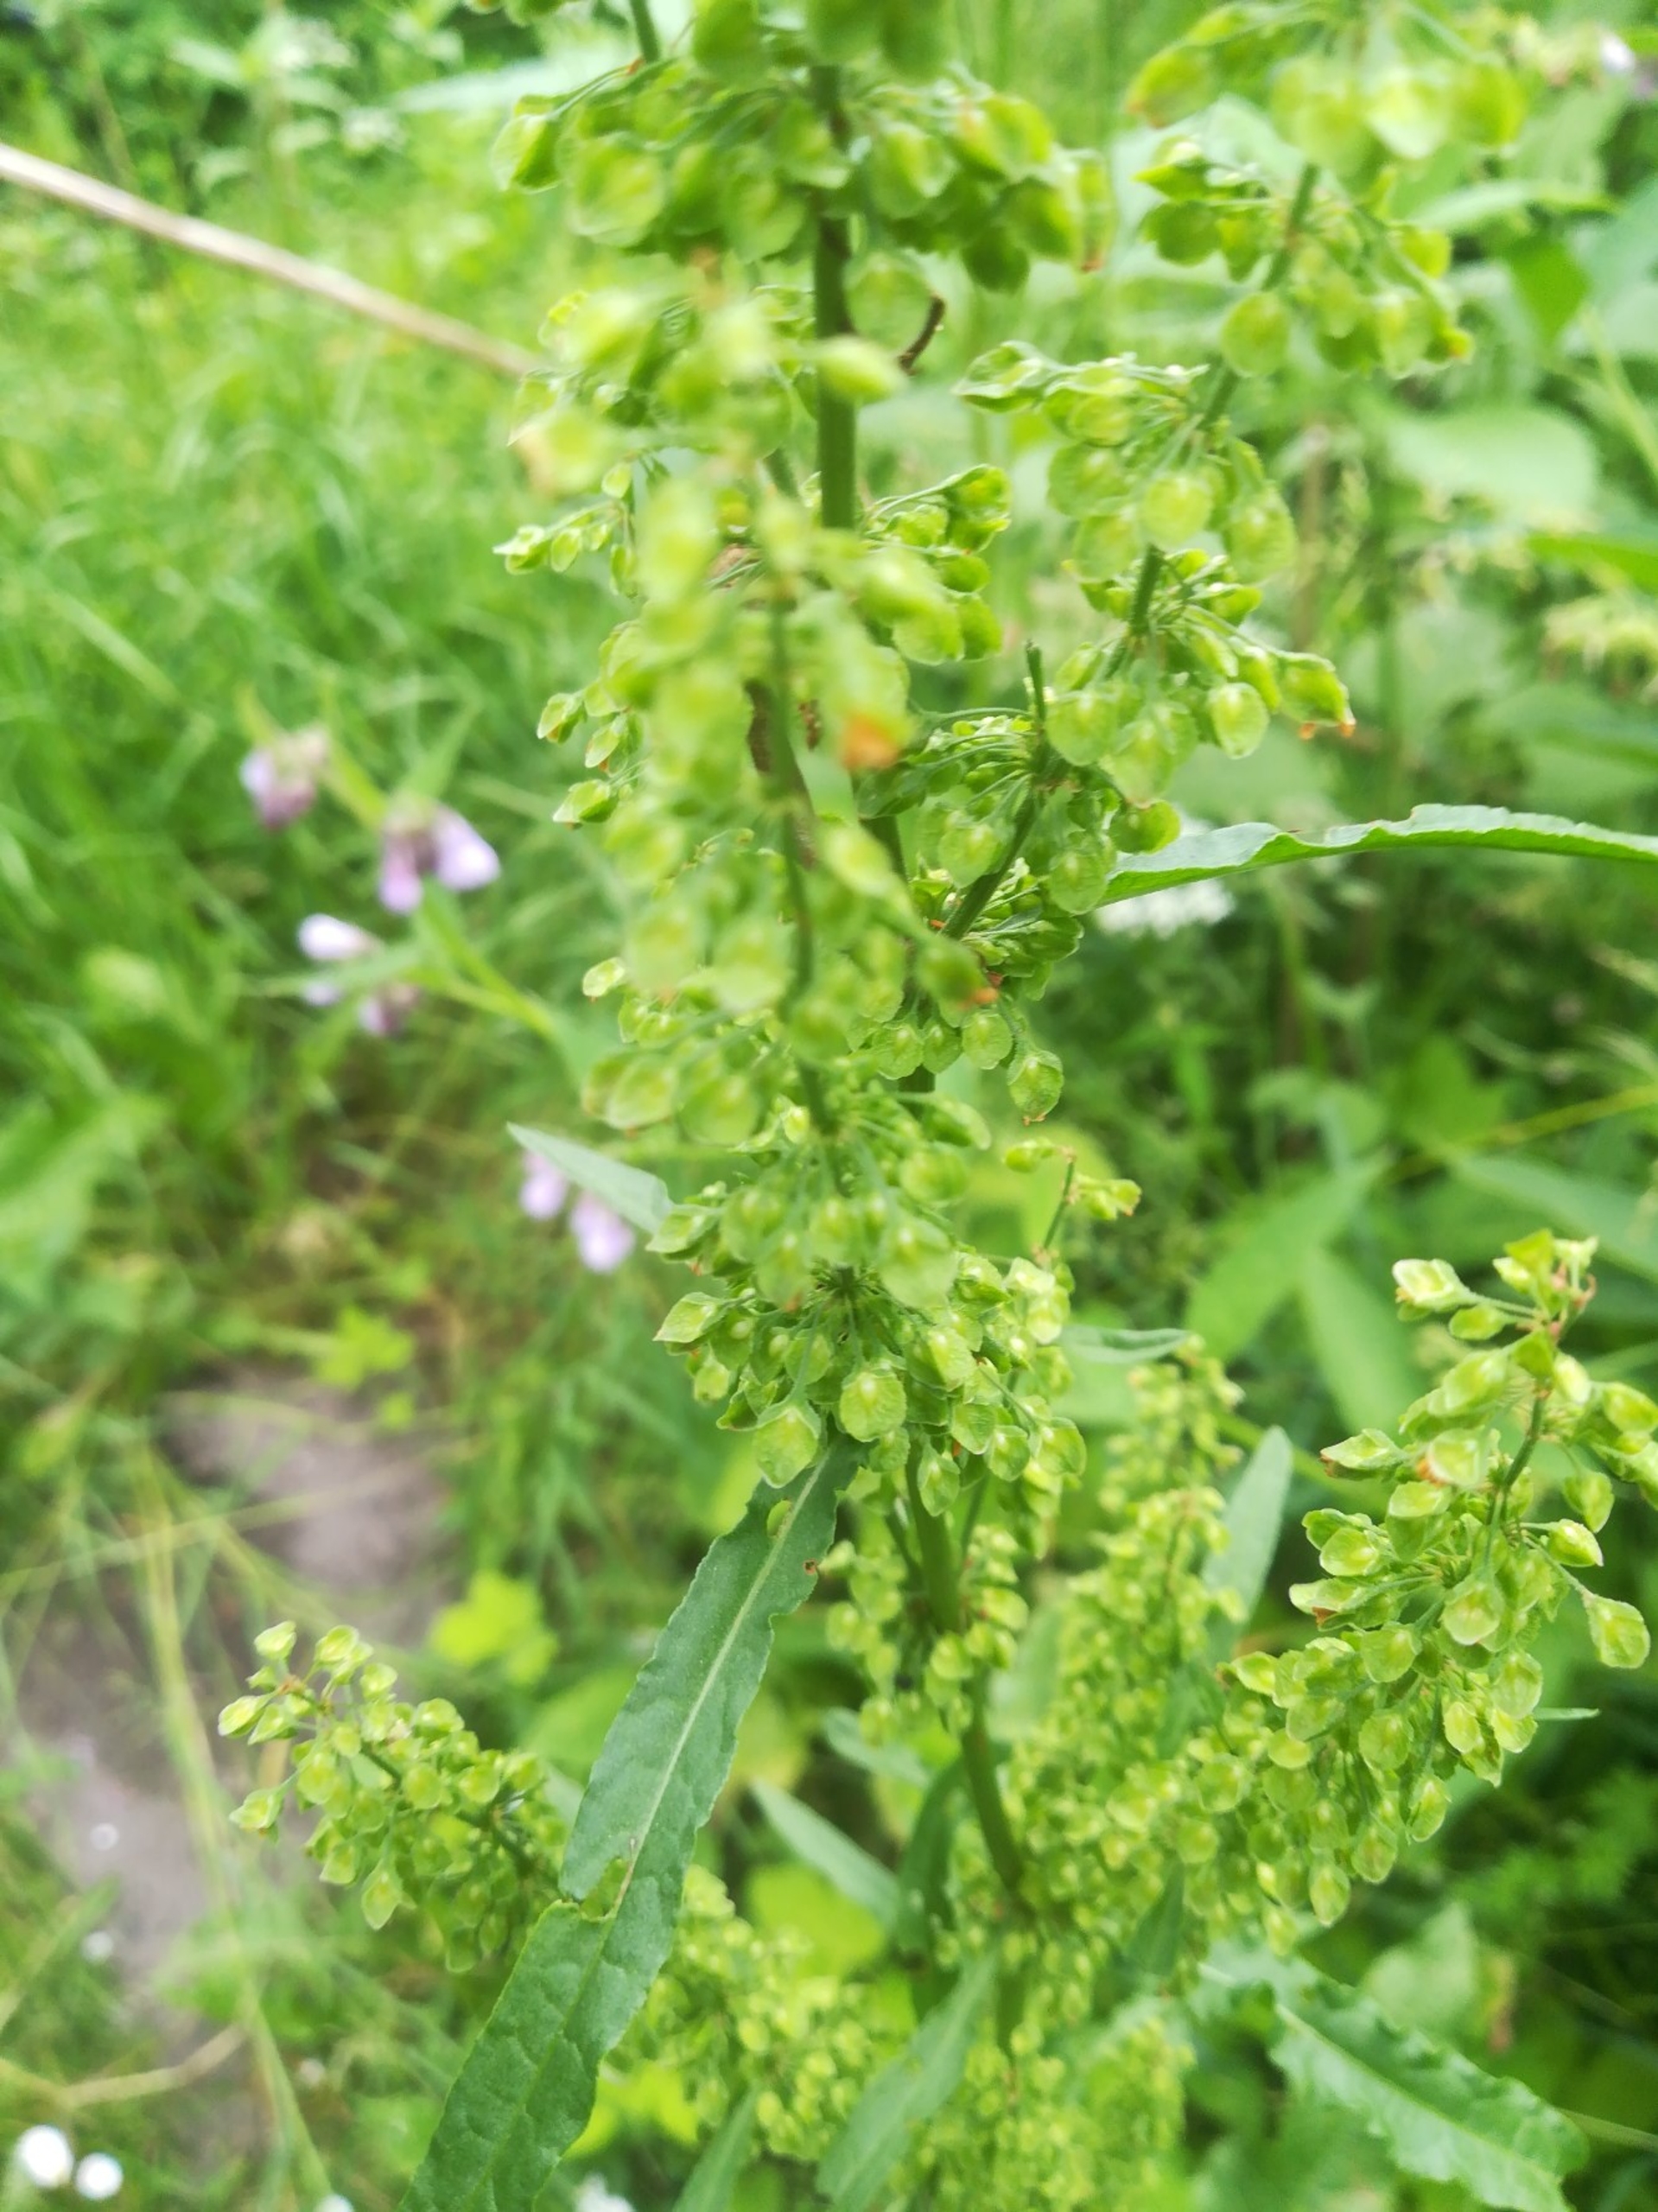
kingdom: Plantae
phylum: Tracheophyta
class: Magnoliopsida
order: Caryophyllales
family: Polygonaceae
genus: Rumex
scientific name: Rumex crispus
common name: Kruset skræppe
